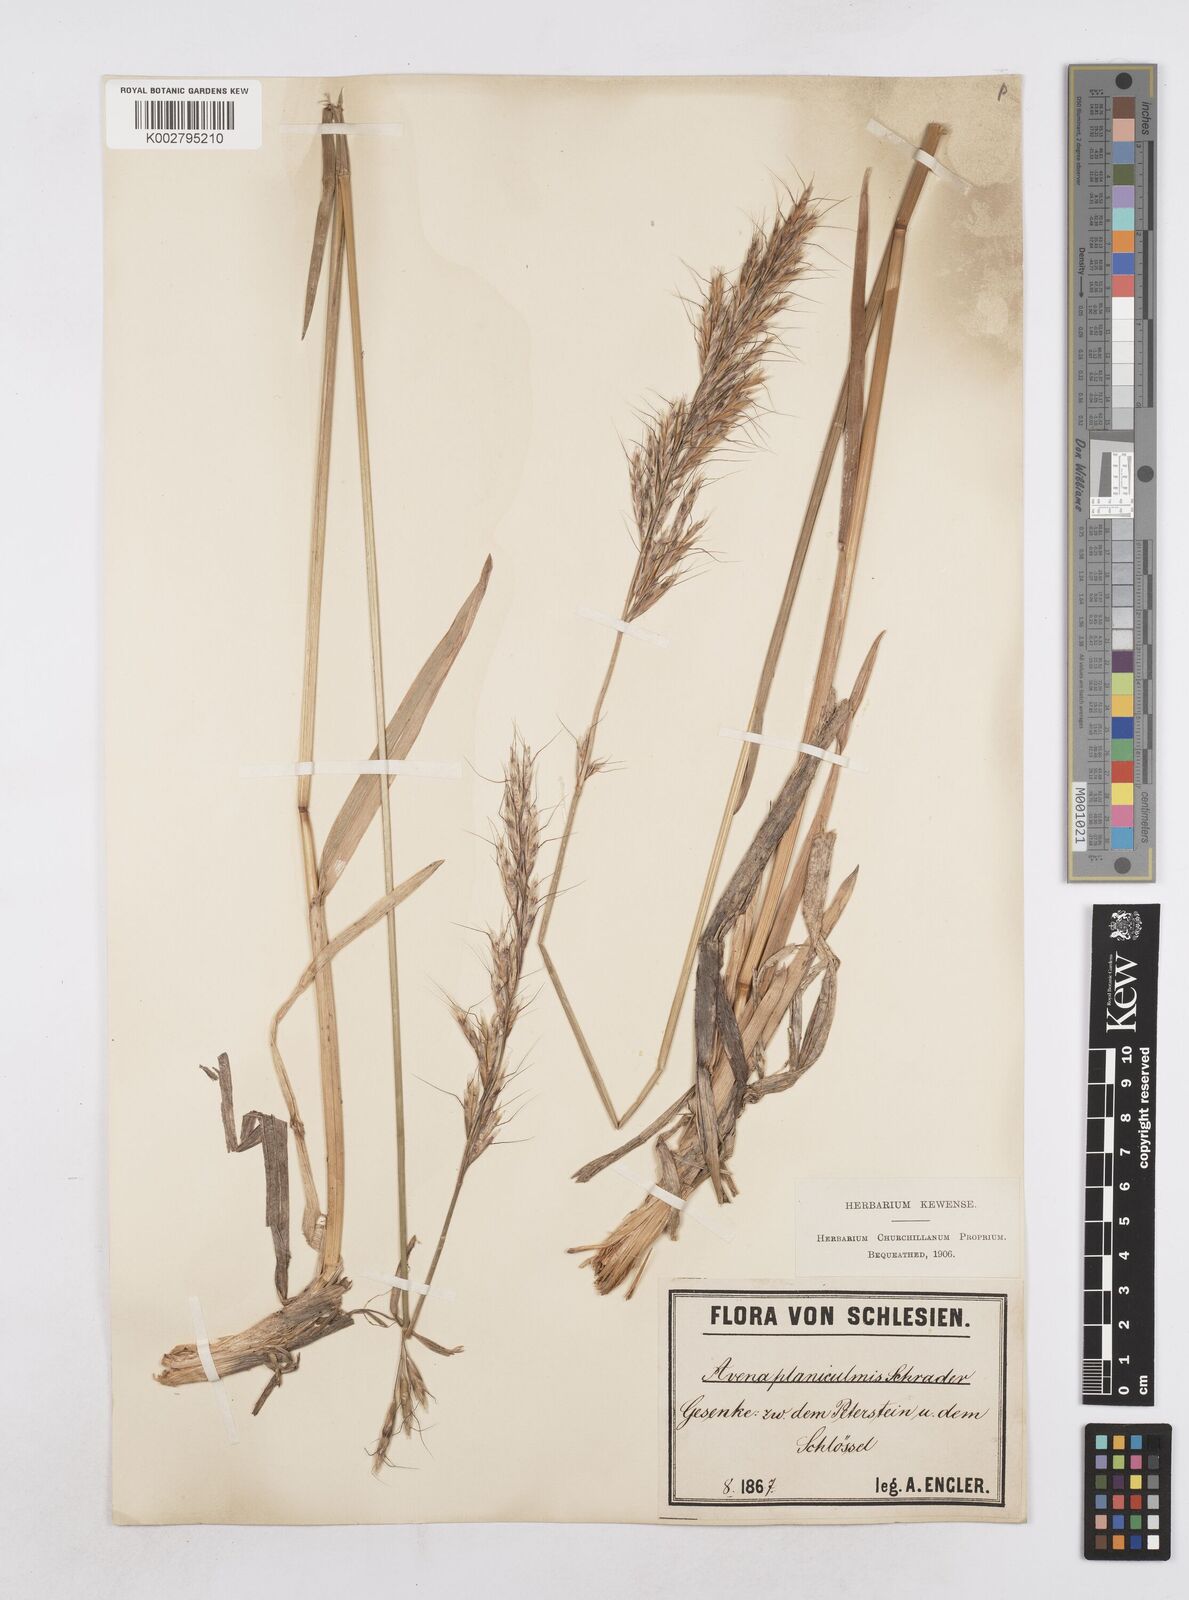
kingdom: Plantae
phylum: Tracheophyta
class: Liliopsida
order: Poales
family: Poaceae
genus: Helictochloa
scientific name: Helictochloa planiculmis
